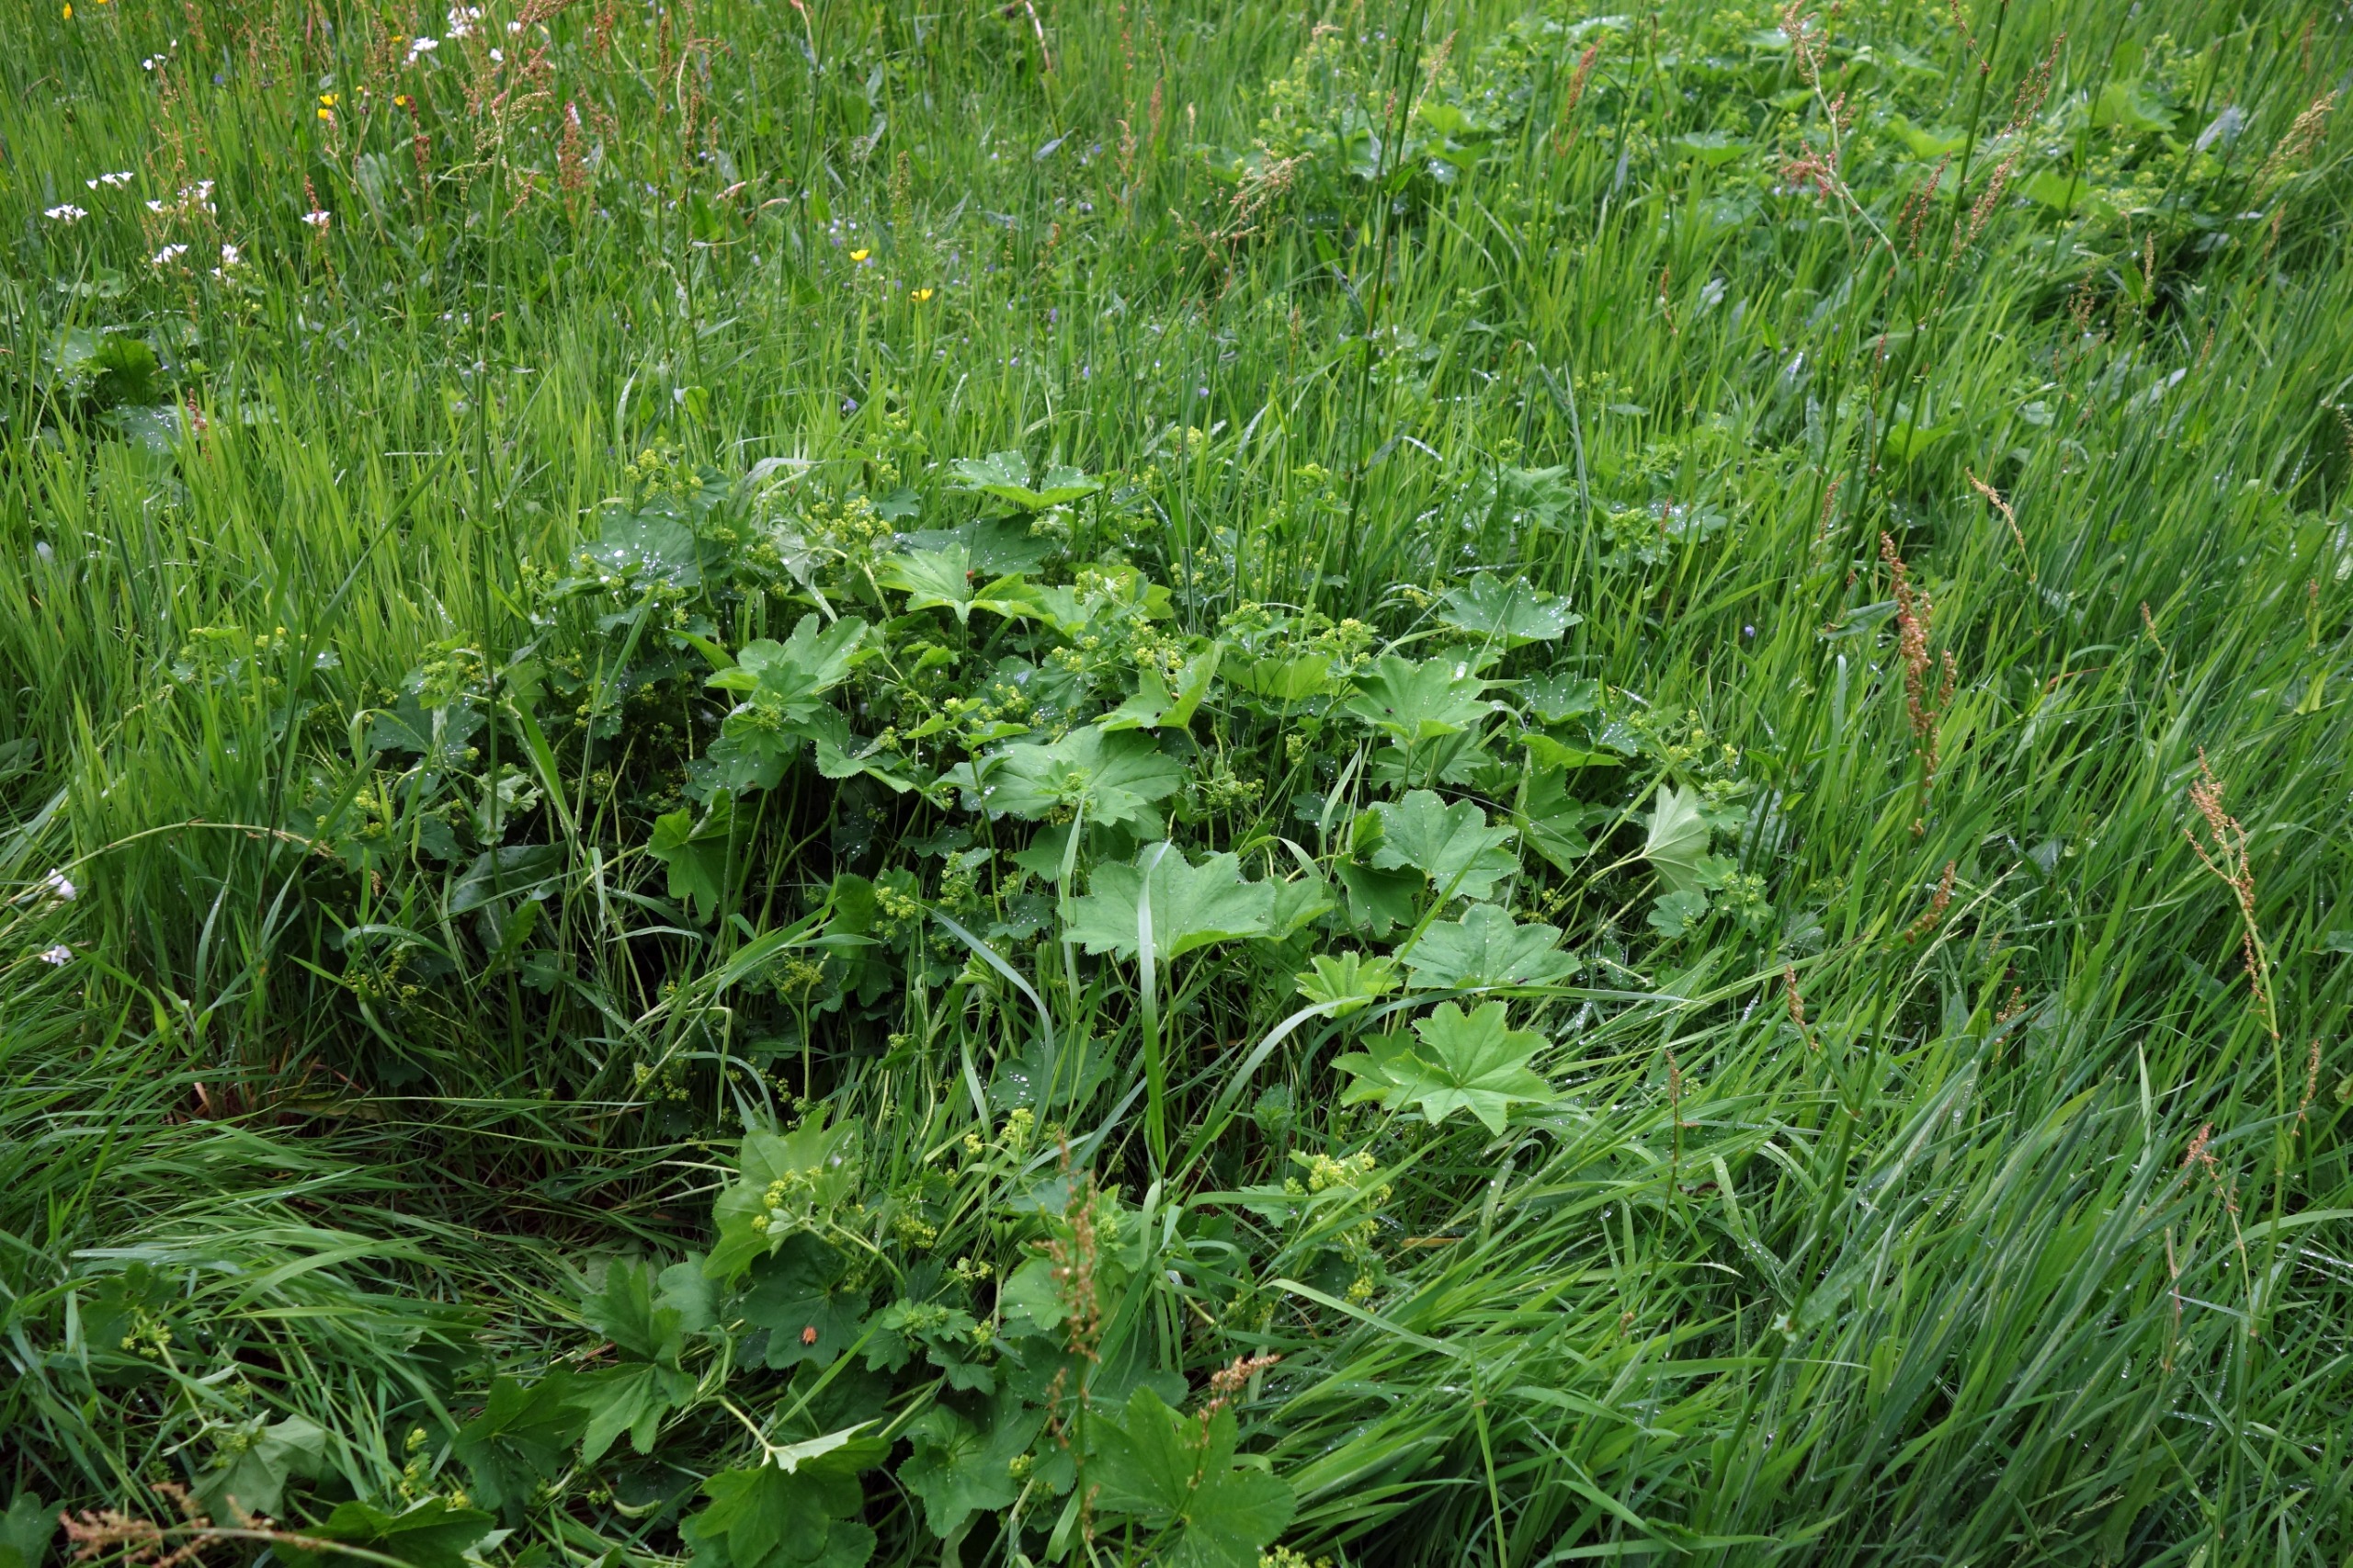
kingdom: Plantae
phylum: Tracheophyta
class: Magnoliopsida
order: Rosales
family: Rosaceae
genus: Alchemilla
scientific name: Alchemilla xanthochlora
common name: Gulgrøn løvefod
